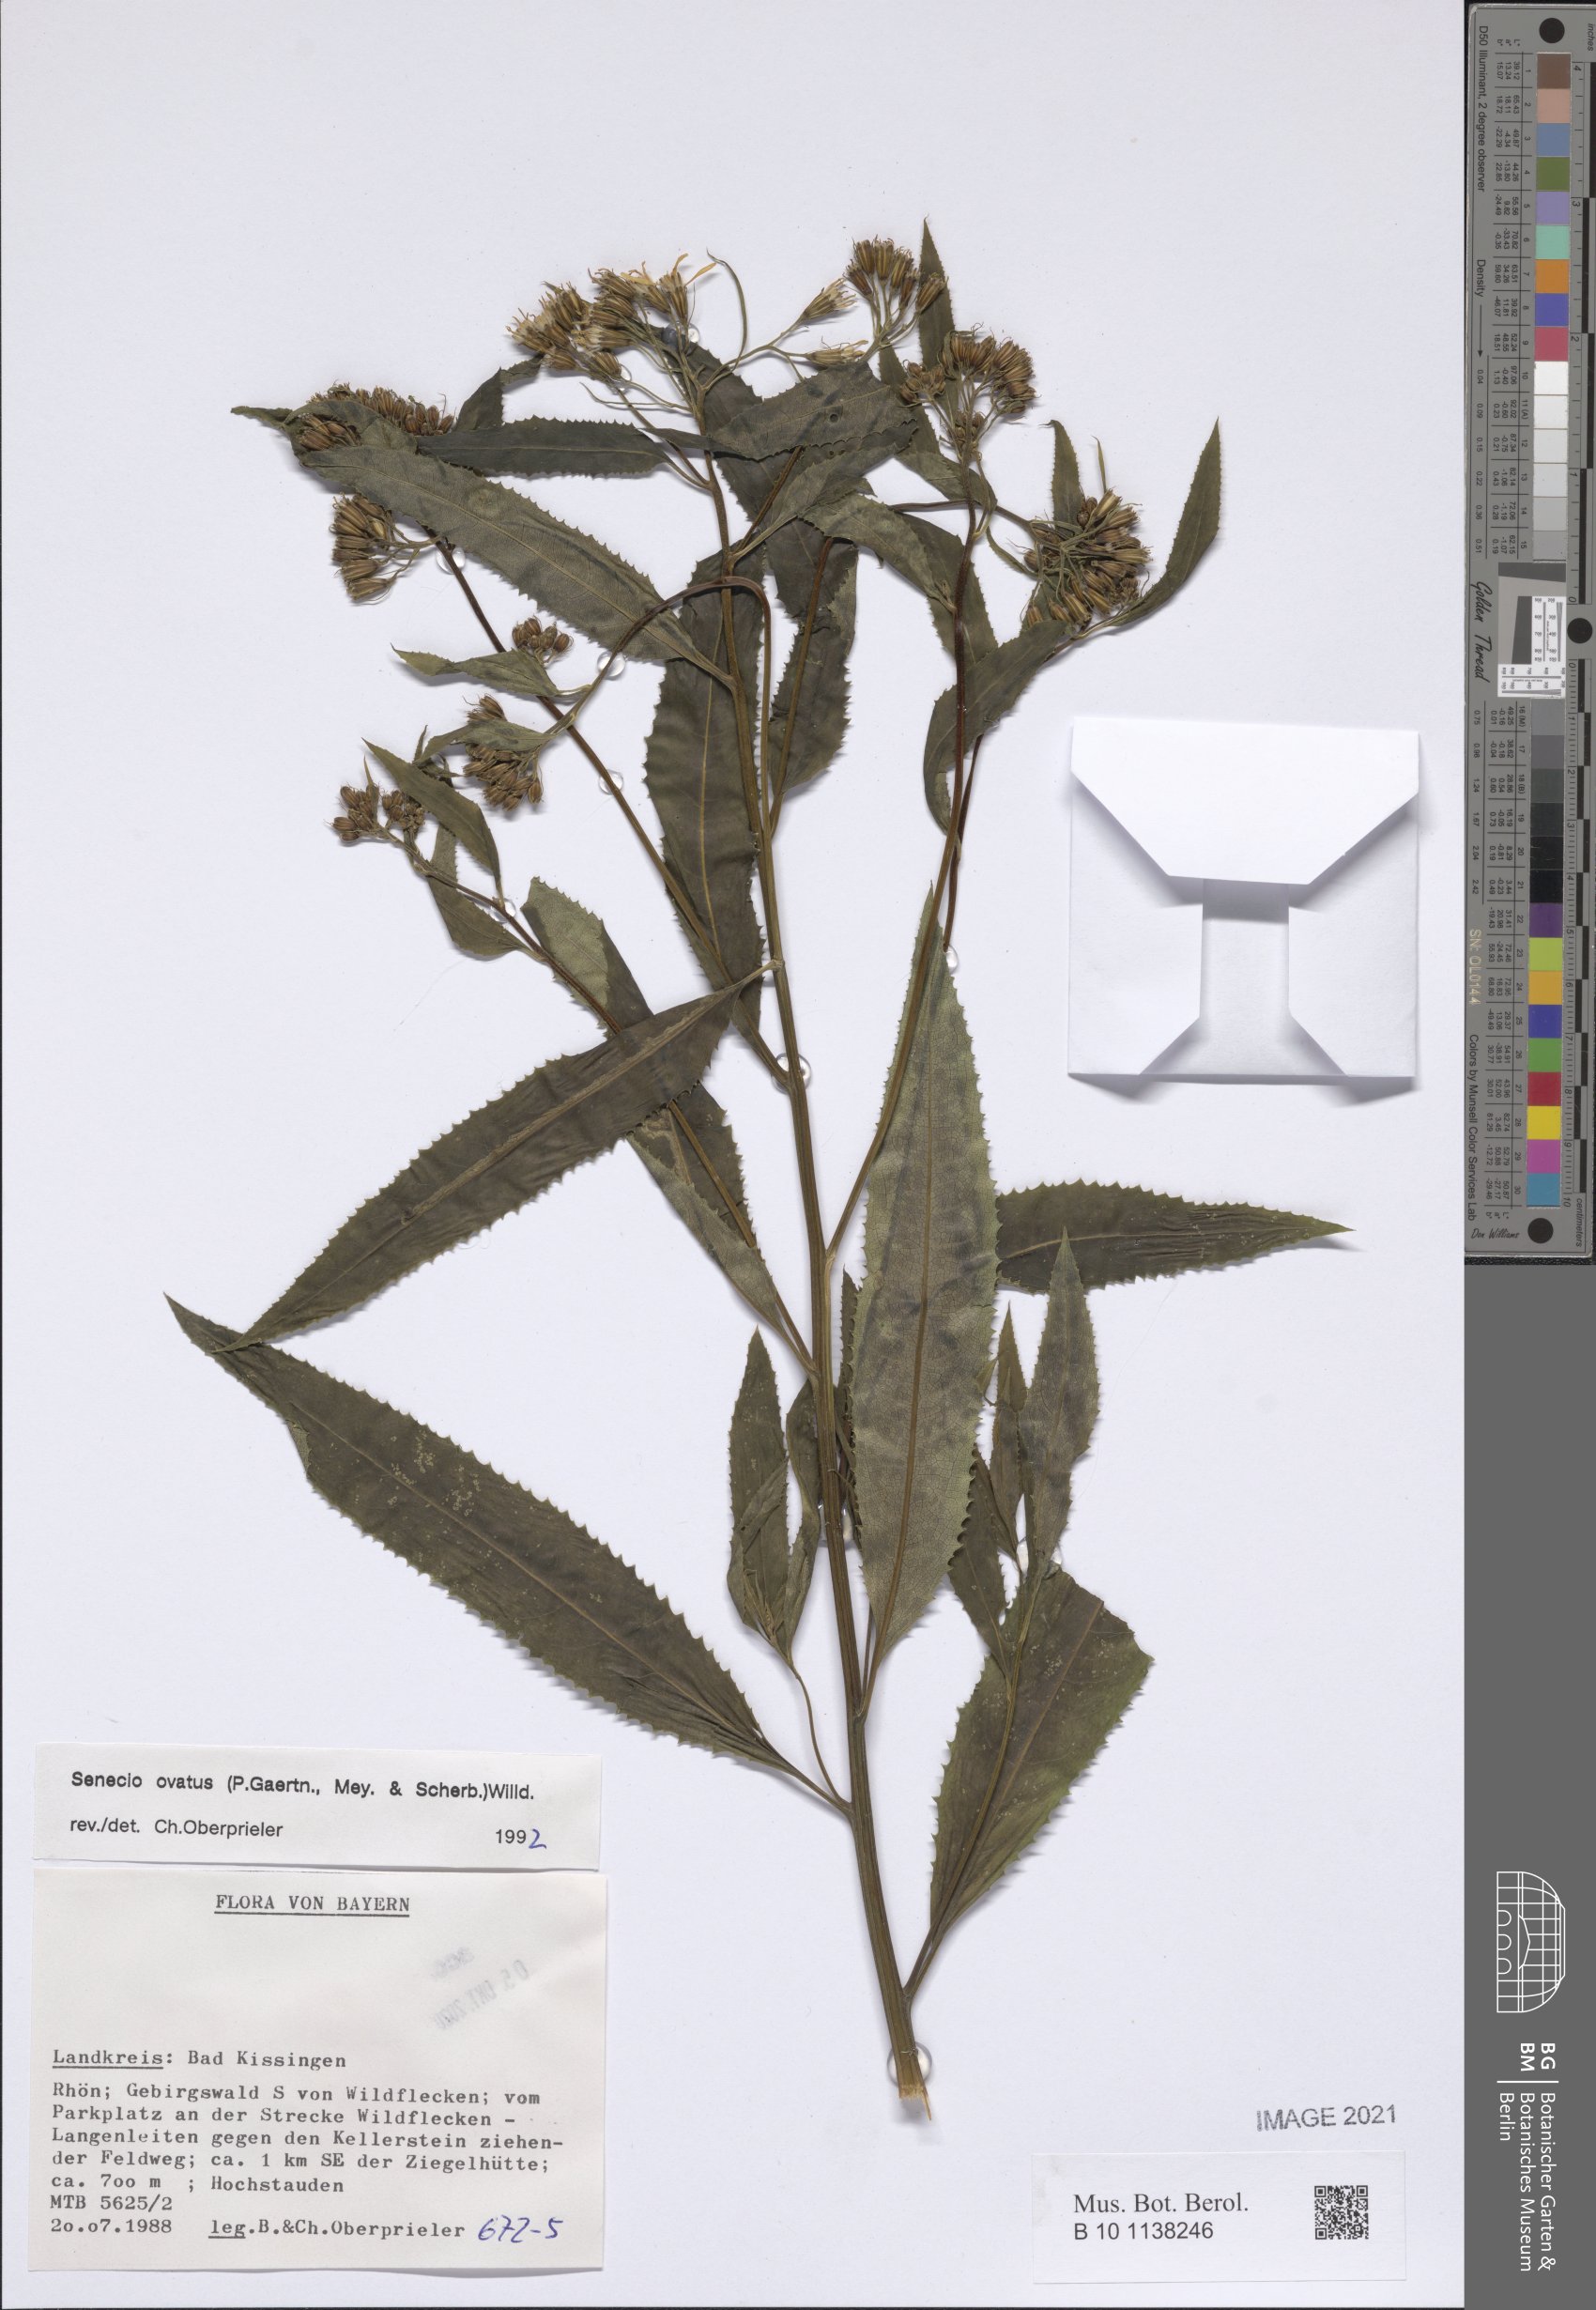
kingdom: Plantae
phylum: Tracheophyta
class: Magnoliopsida
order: Asterales
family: Asteraceae
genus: Senecio
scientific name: Senecio ovatus
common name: Wood ragwort
